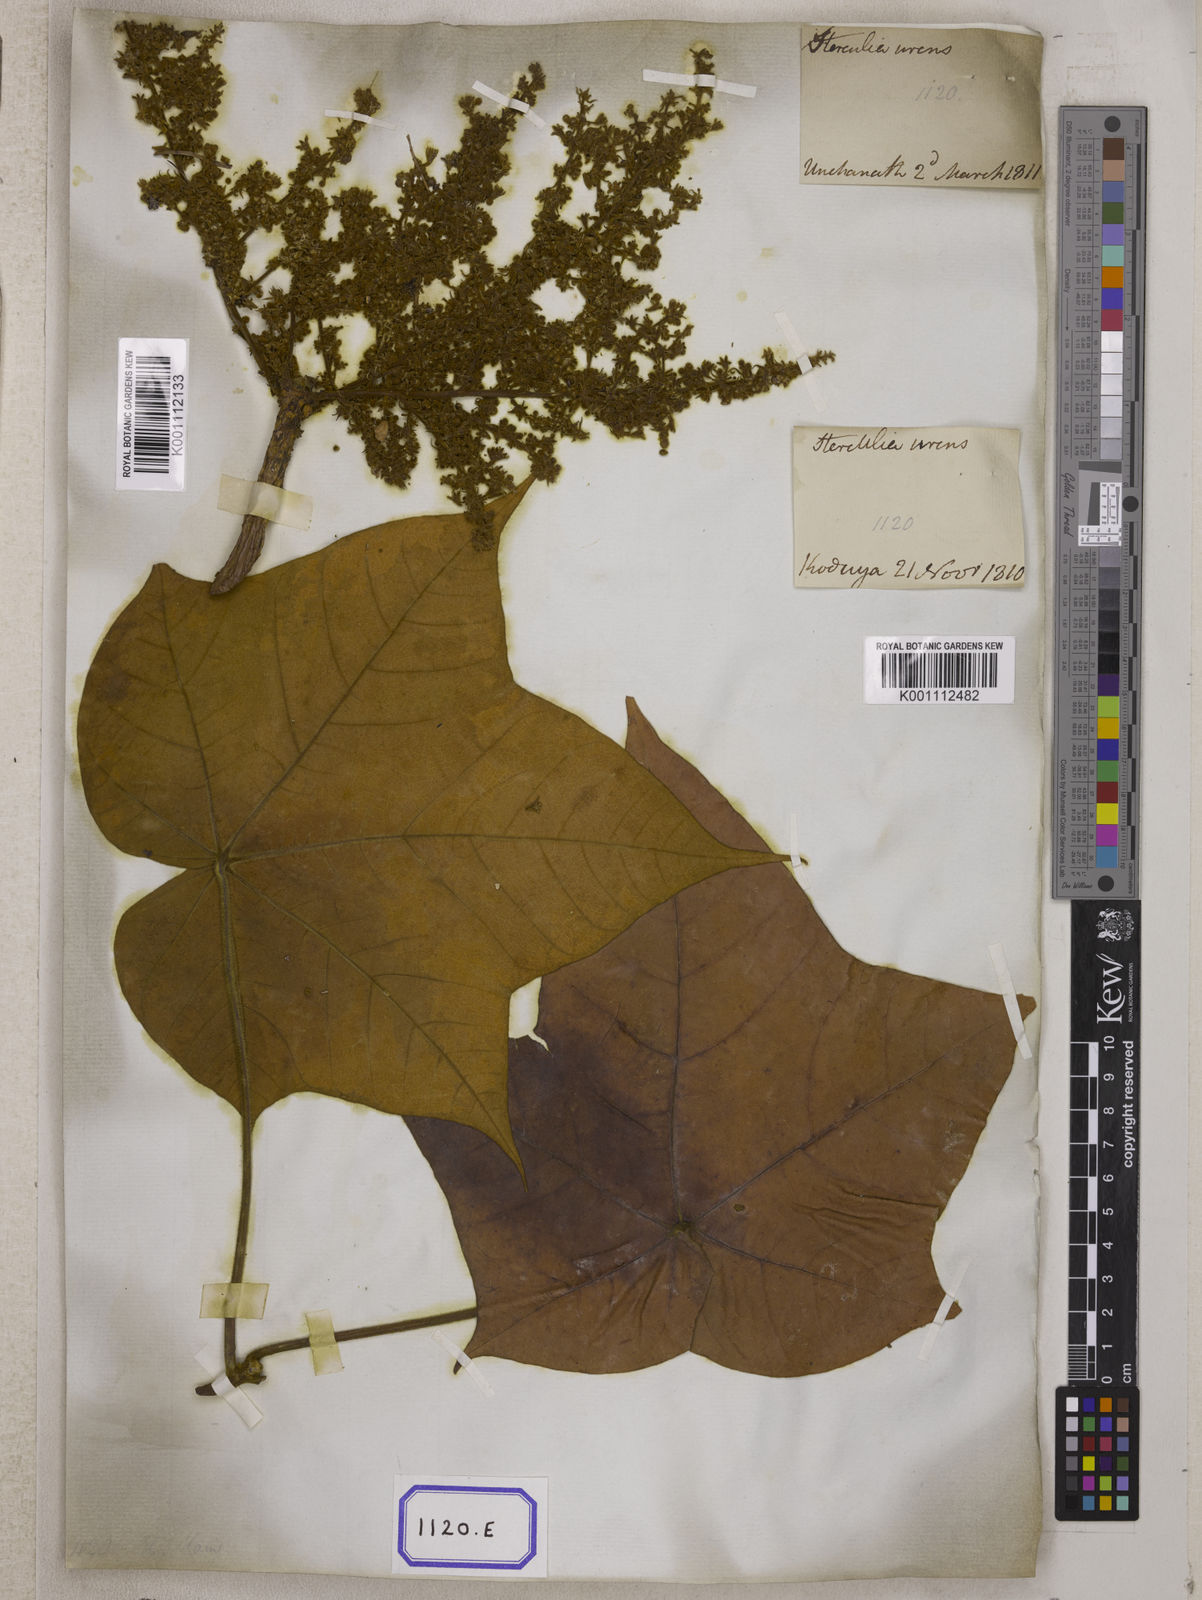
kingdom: Plantae
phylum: Tracheophyta
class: Magnoliopsida
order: Malvales
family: Malvaceae
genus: Sterculia
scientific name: Sterculia urens
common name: Indian-tragacanth
